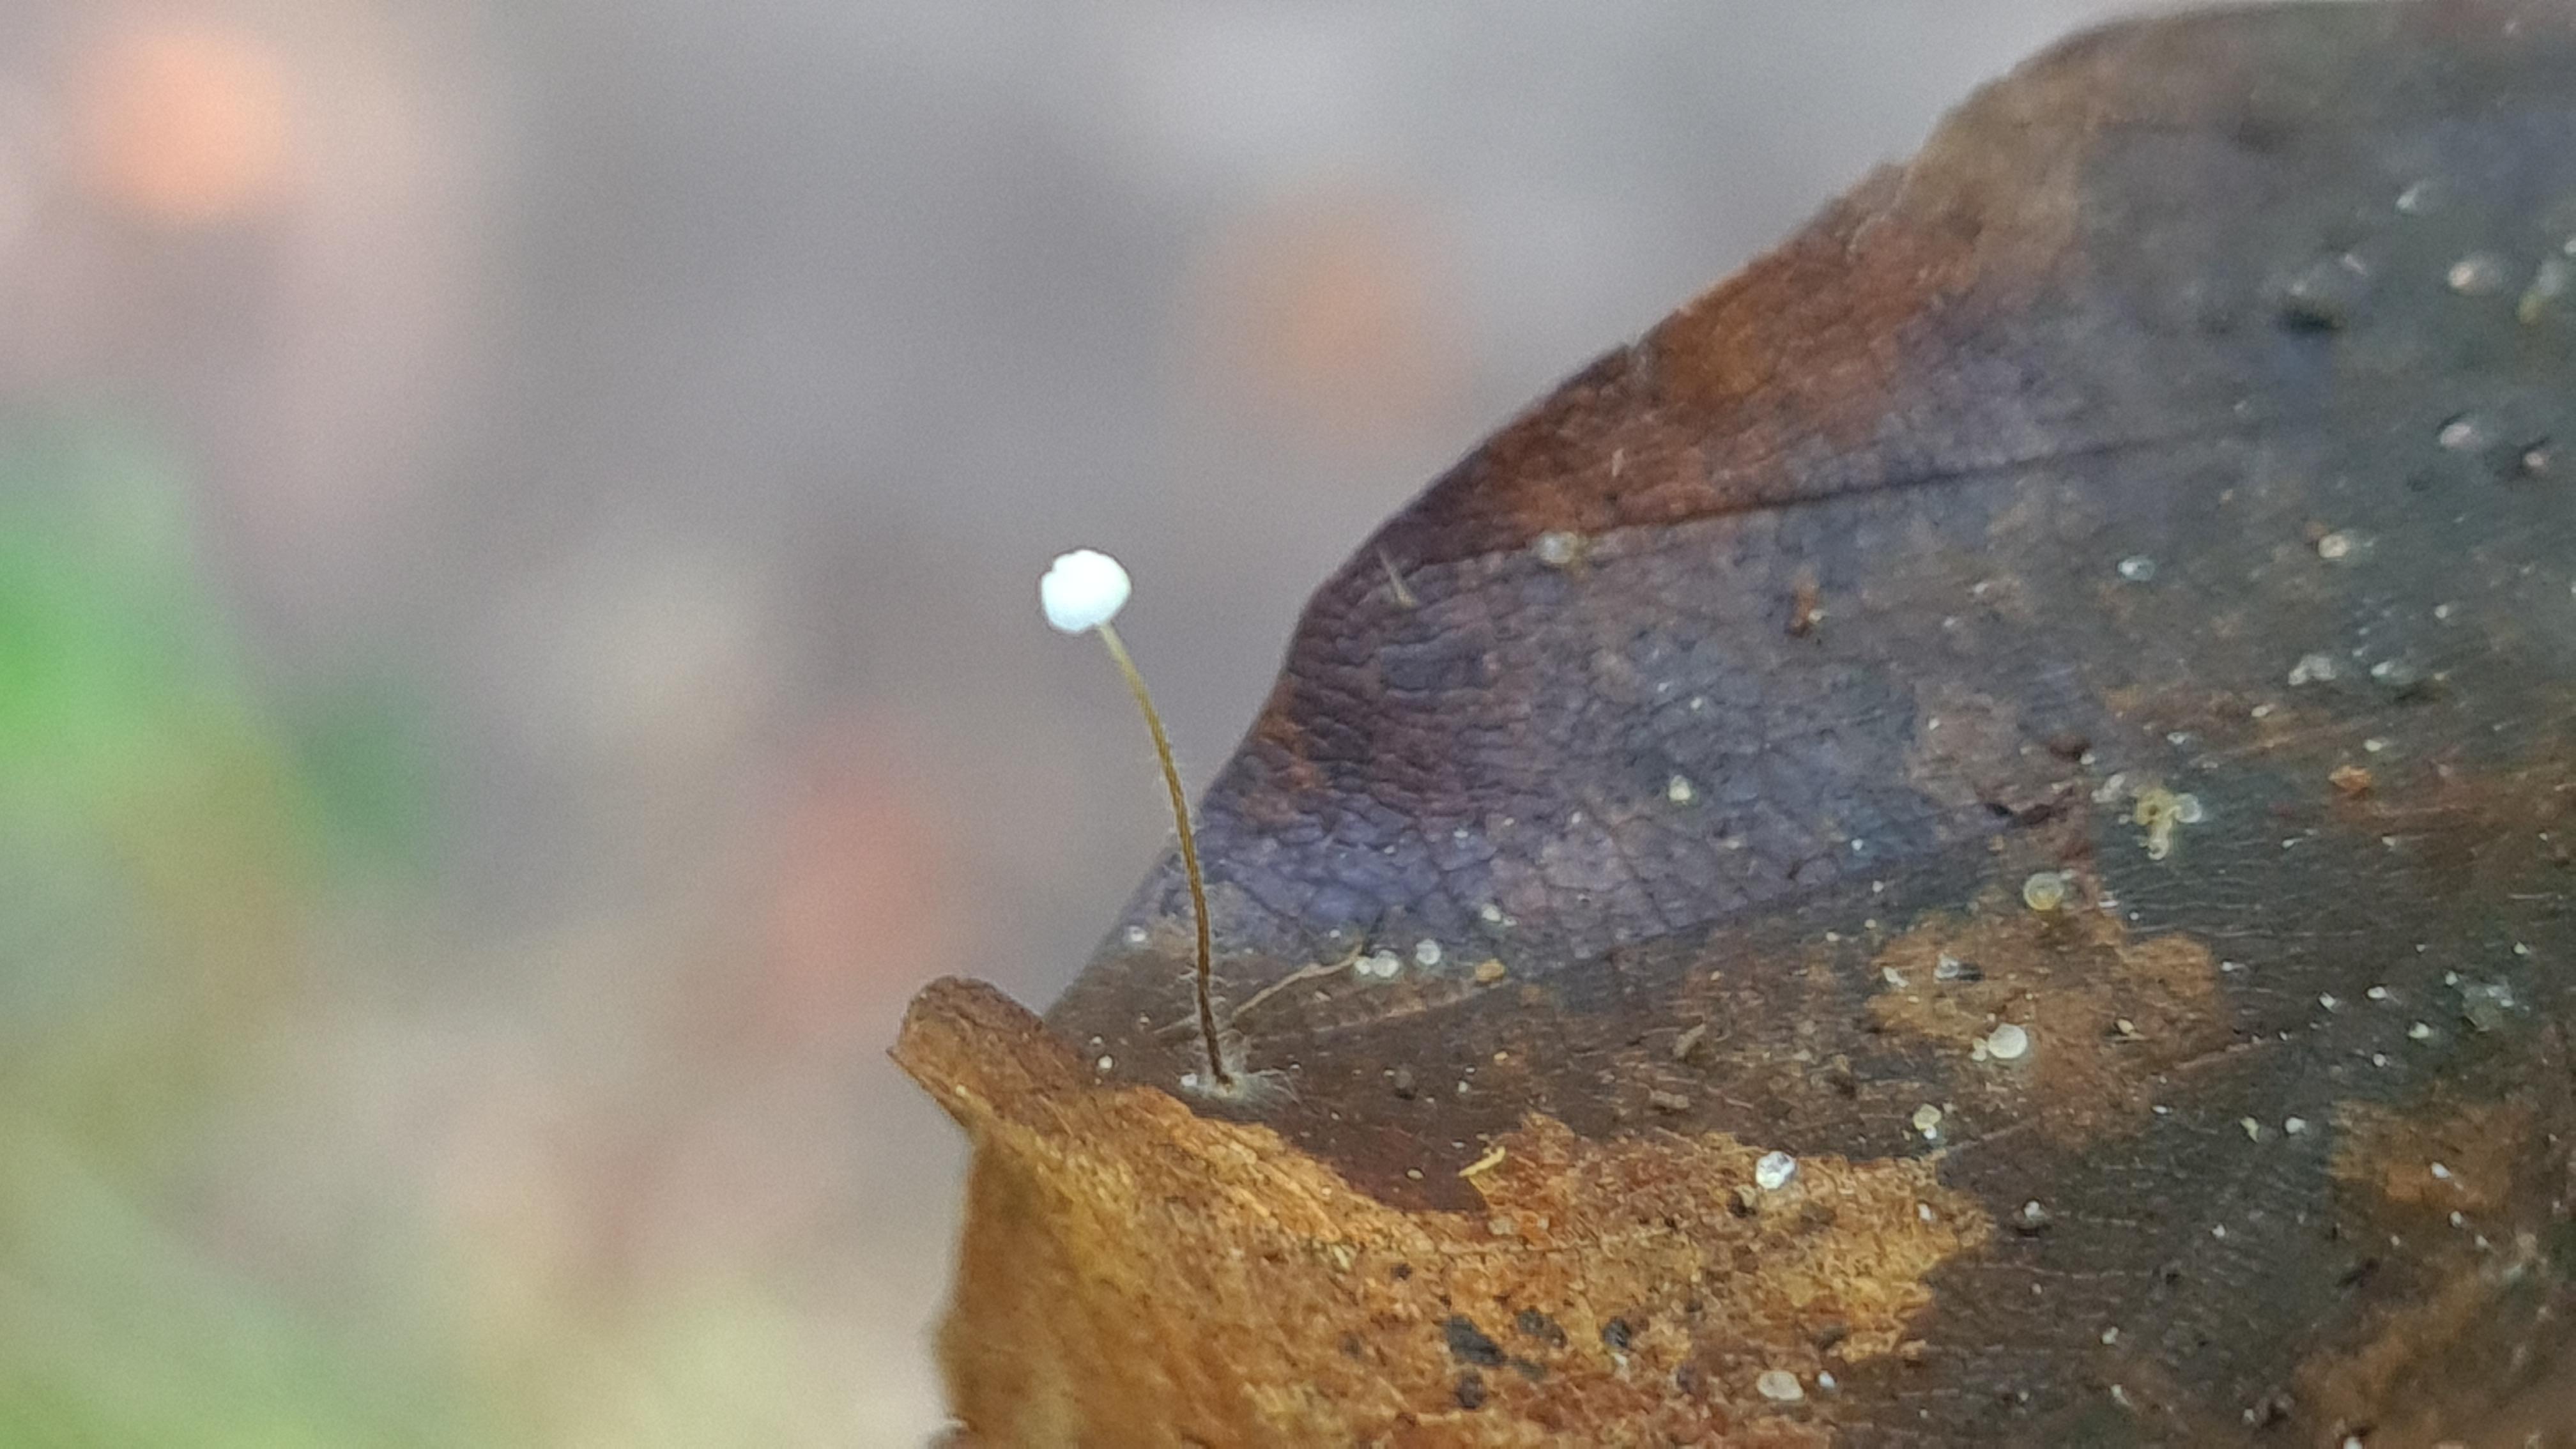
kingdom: Fungi
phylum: Basidiomycota
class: Agaricomycetes
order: Agaricales
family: Physalacriaceae
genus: Rhizomarasmius
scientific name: Rhizomarasmius setosus
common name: bøgeblads-bruskhat
